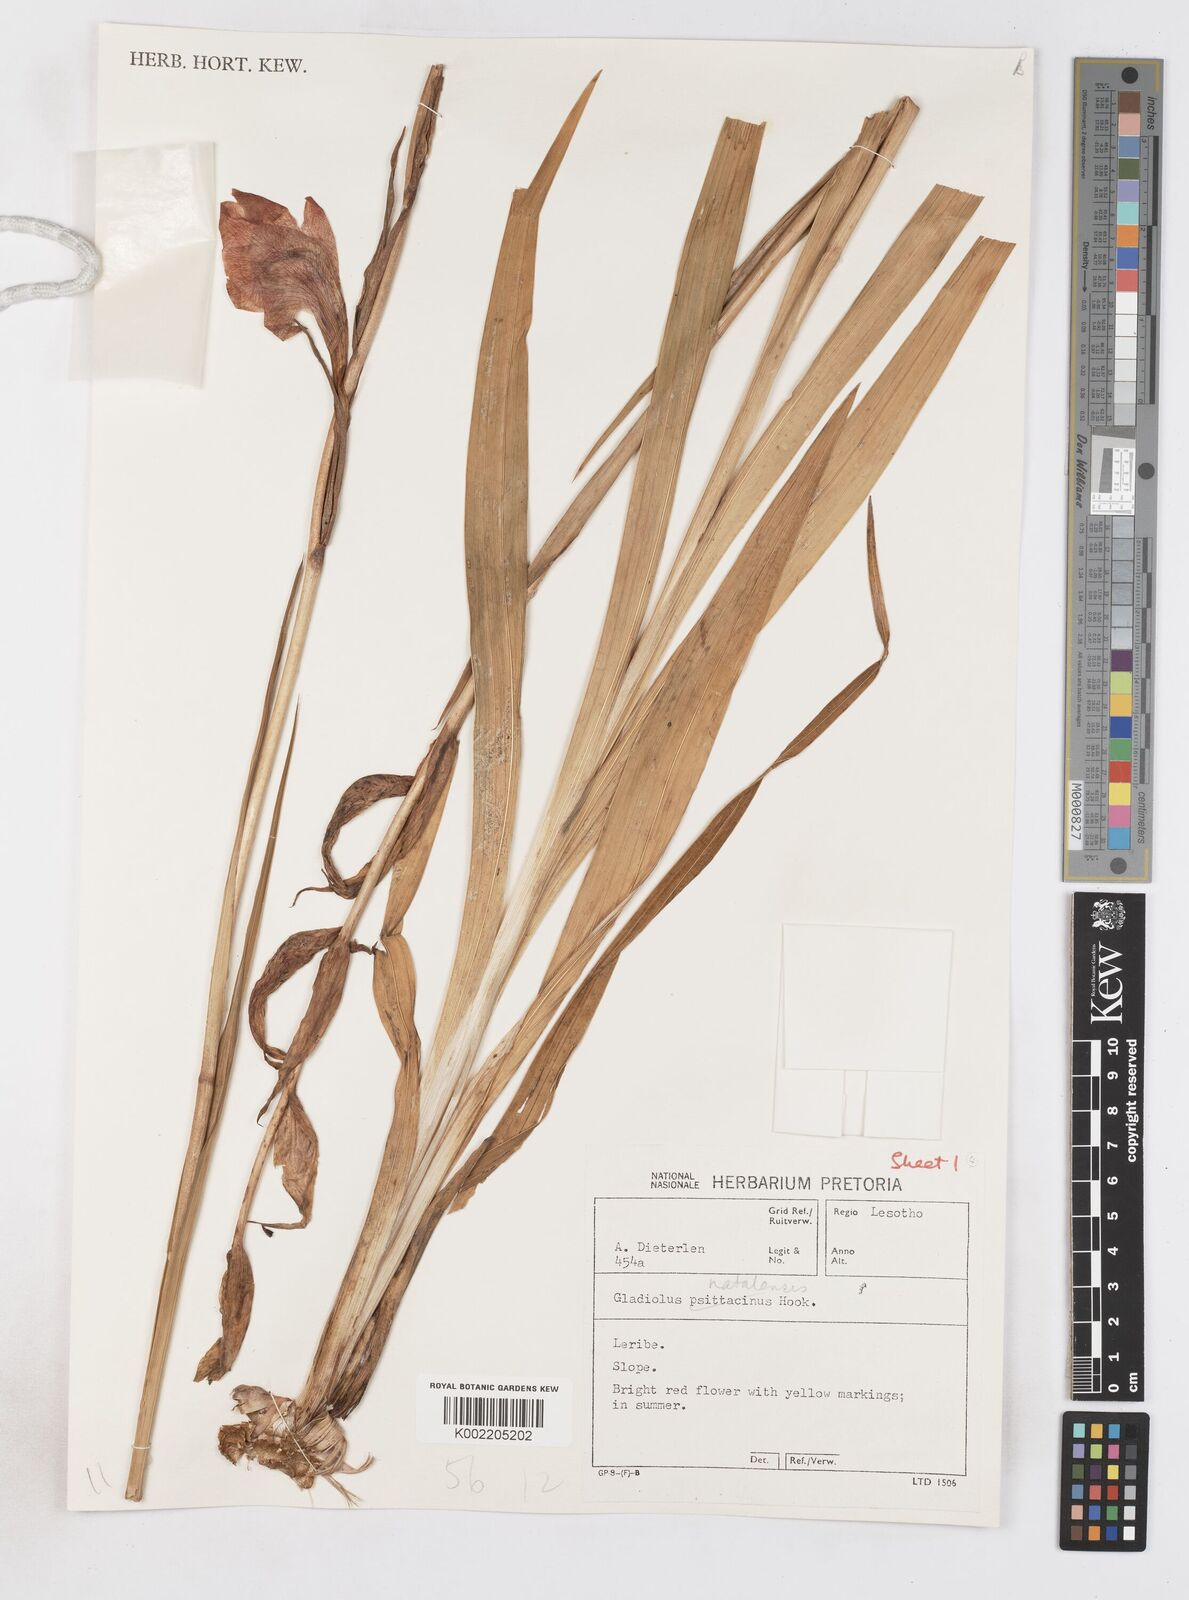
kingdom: Plantae
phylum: Tracheophyta
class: Liliopsida
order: Asparagales
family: Iridaceae
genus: Gladiolus
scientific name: Gladiolus dalenii
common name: Cornflag
